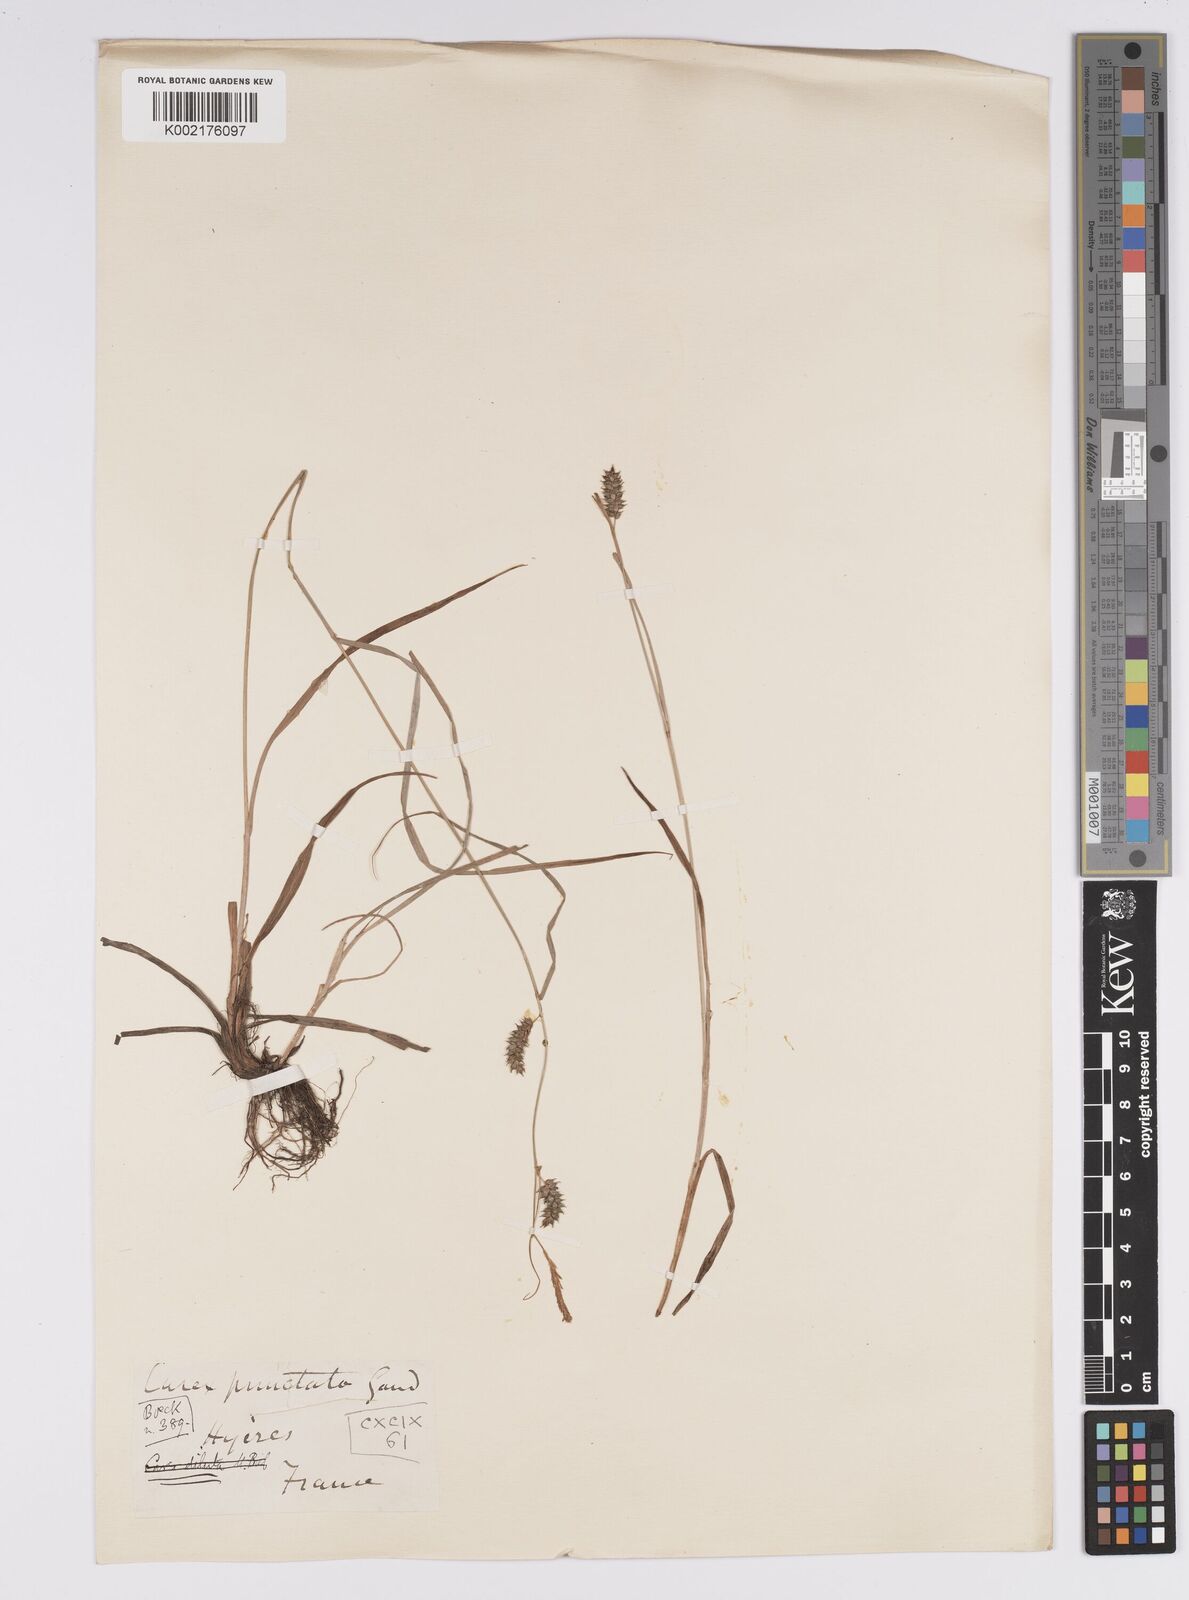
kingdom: Plantae
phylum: Tracheophyta
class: Liliopsida
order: Poales
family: Cyperaceae
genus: Carex
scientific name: Carex punctata
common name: Dotted sedge
